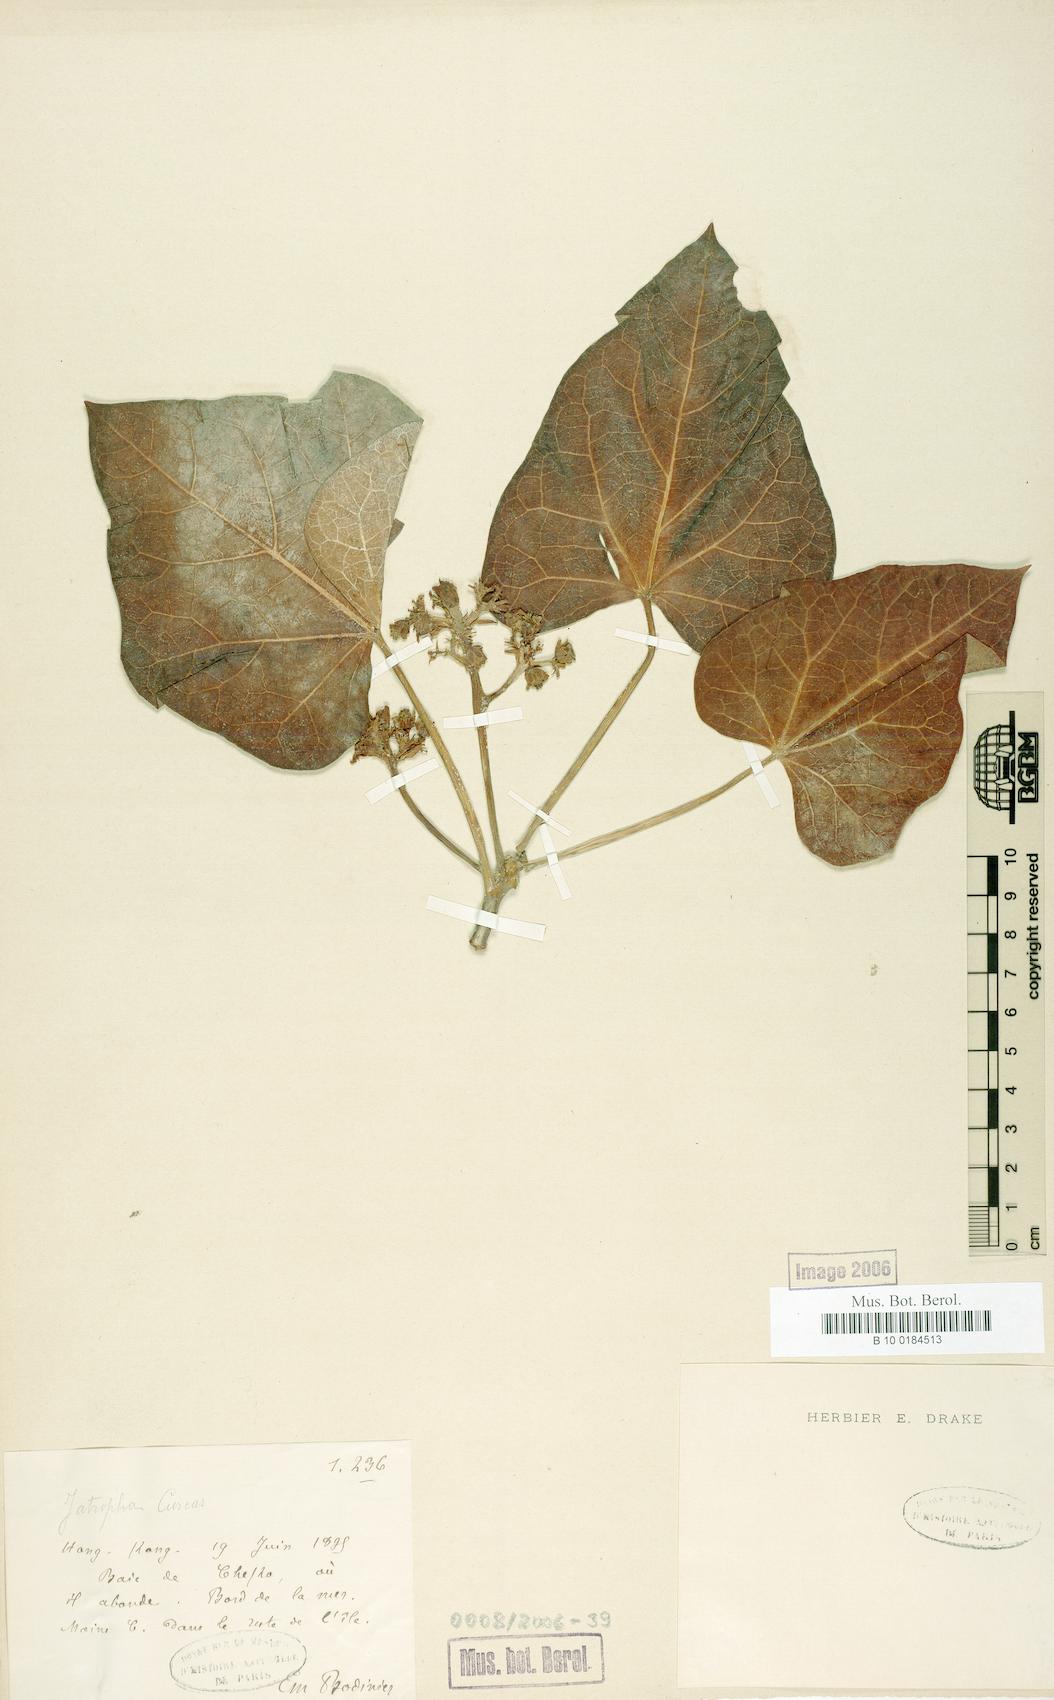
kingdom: Plantae
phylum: Tracheophyta
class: Magnoliopsida
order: Malpighiales
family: Euphorbiaceae
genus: Jatropha
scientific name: Jatropha curcas
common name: Barbados nut
